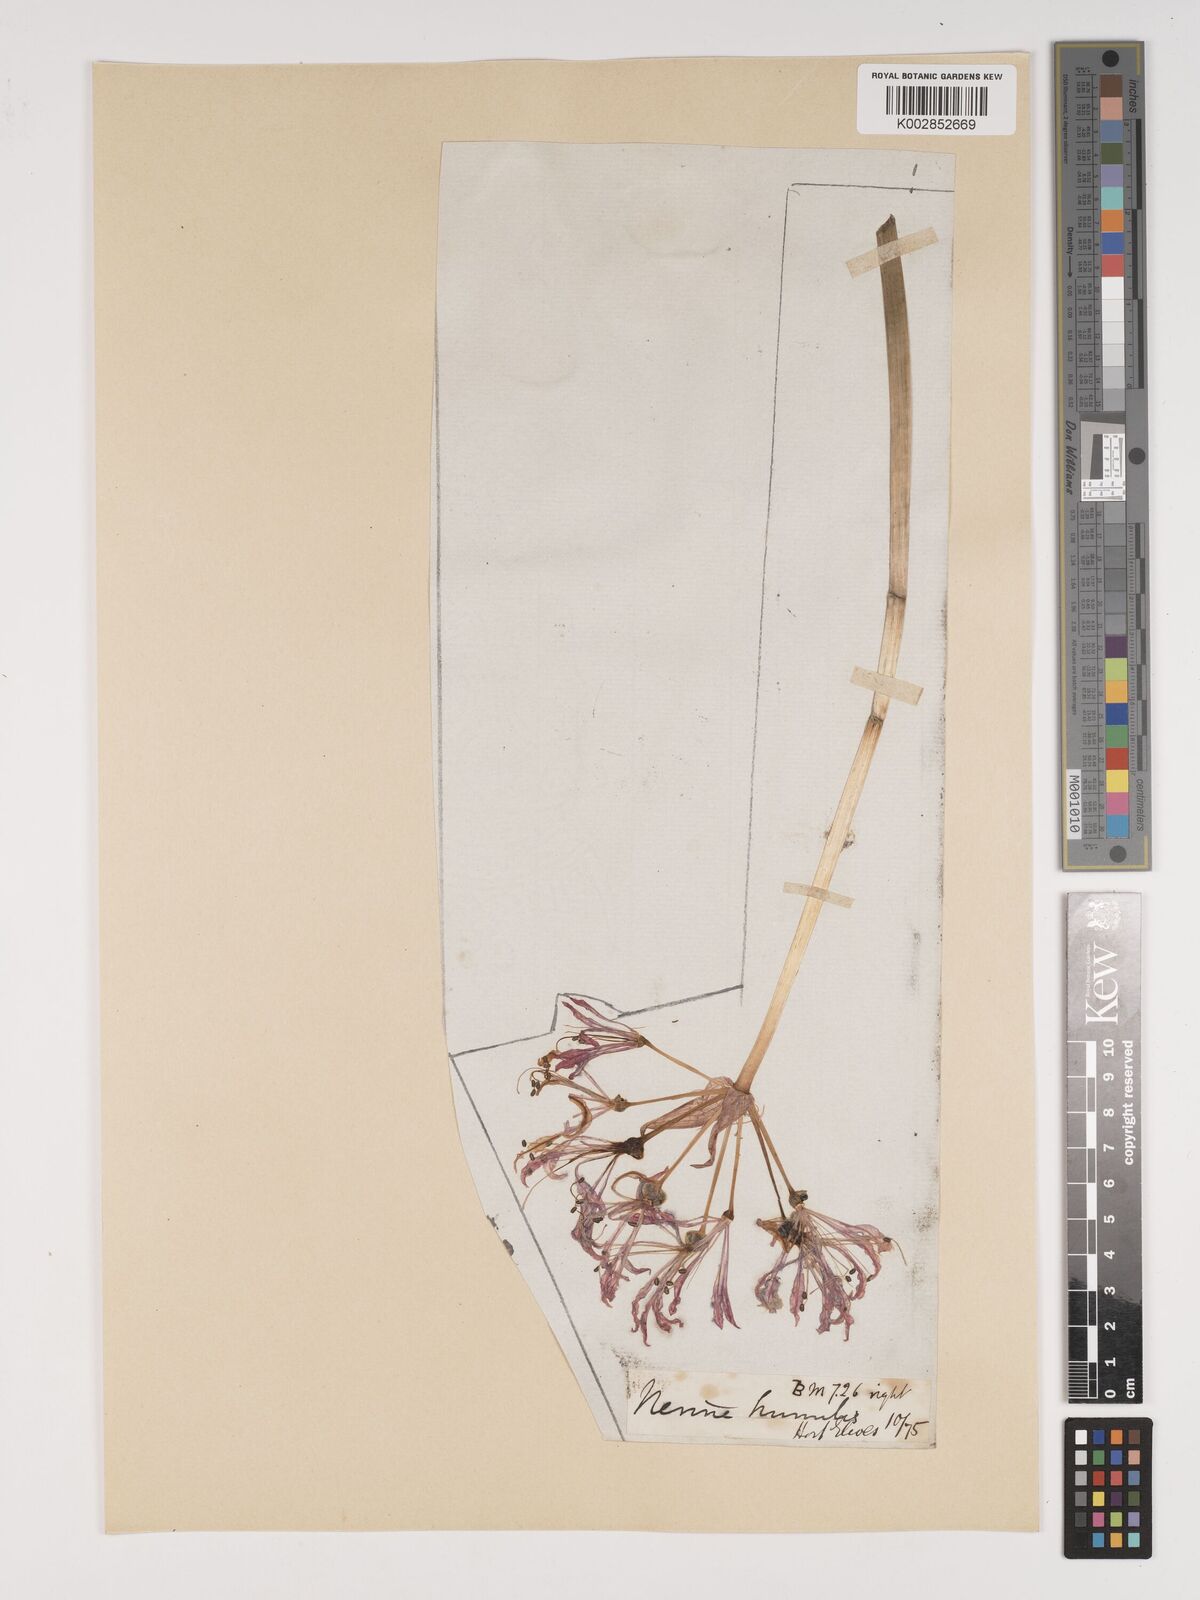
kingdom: Plantae
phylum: Tracheophyta
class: Liliopsida
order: Asparagales
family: Amaryllidaceae
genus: Nerine
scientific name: Nerine humilis
